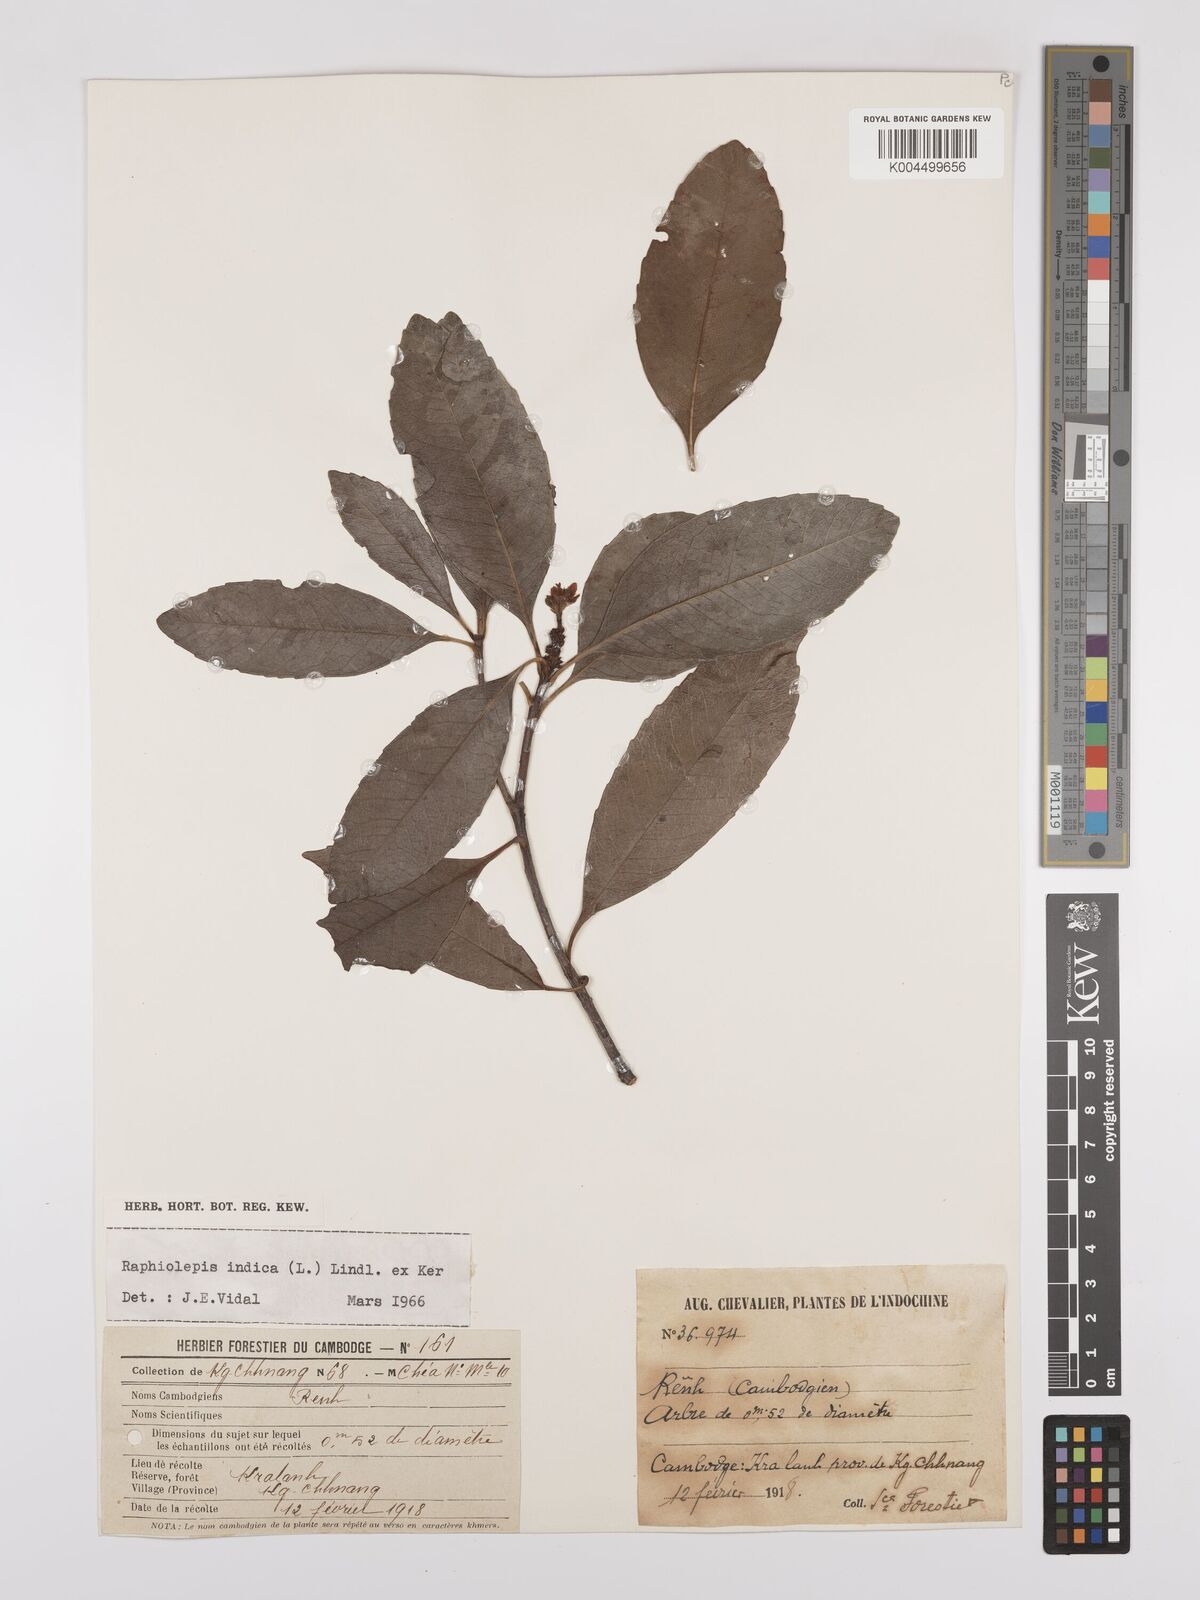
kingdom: Plantae
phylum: Tracheophyta
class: Magnoliopsida
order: Rosales
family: Rosaceae
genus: Rhaphiolepis
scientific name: Rhaphiolepis indica
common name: India-hawthorn
